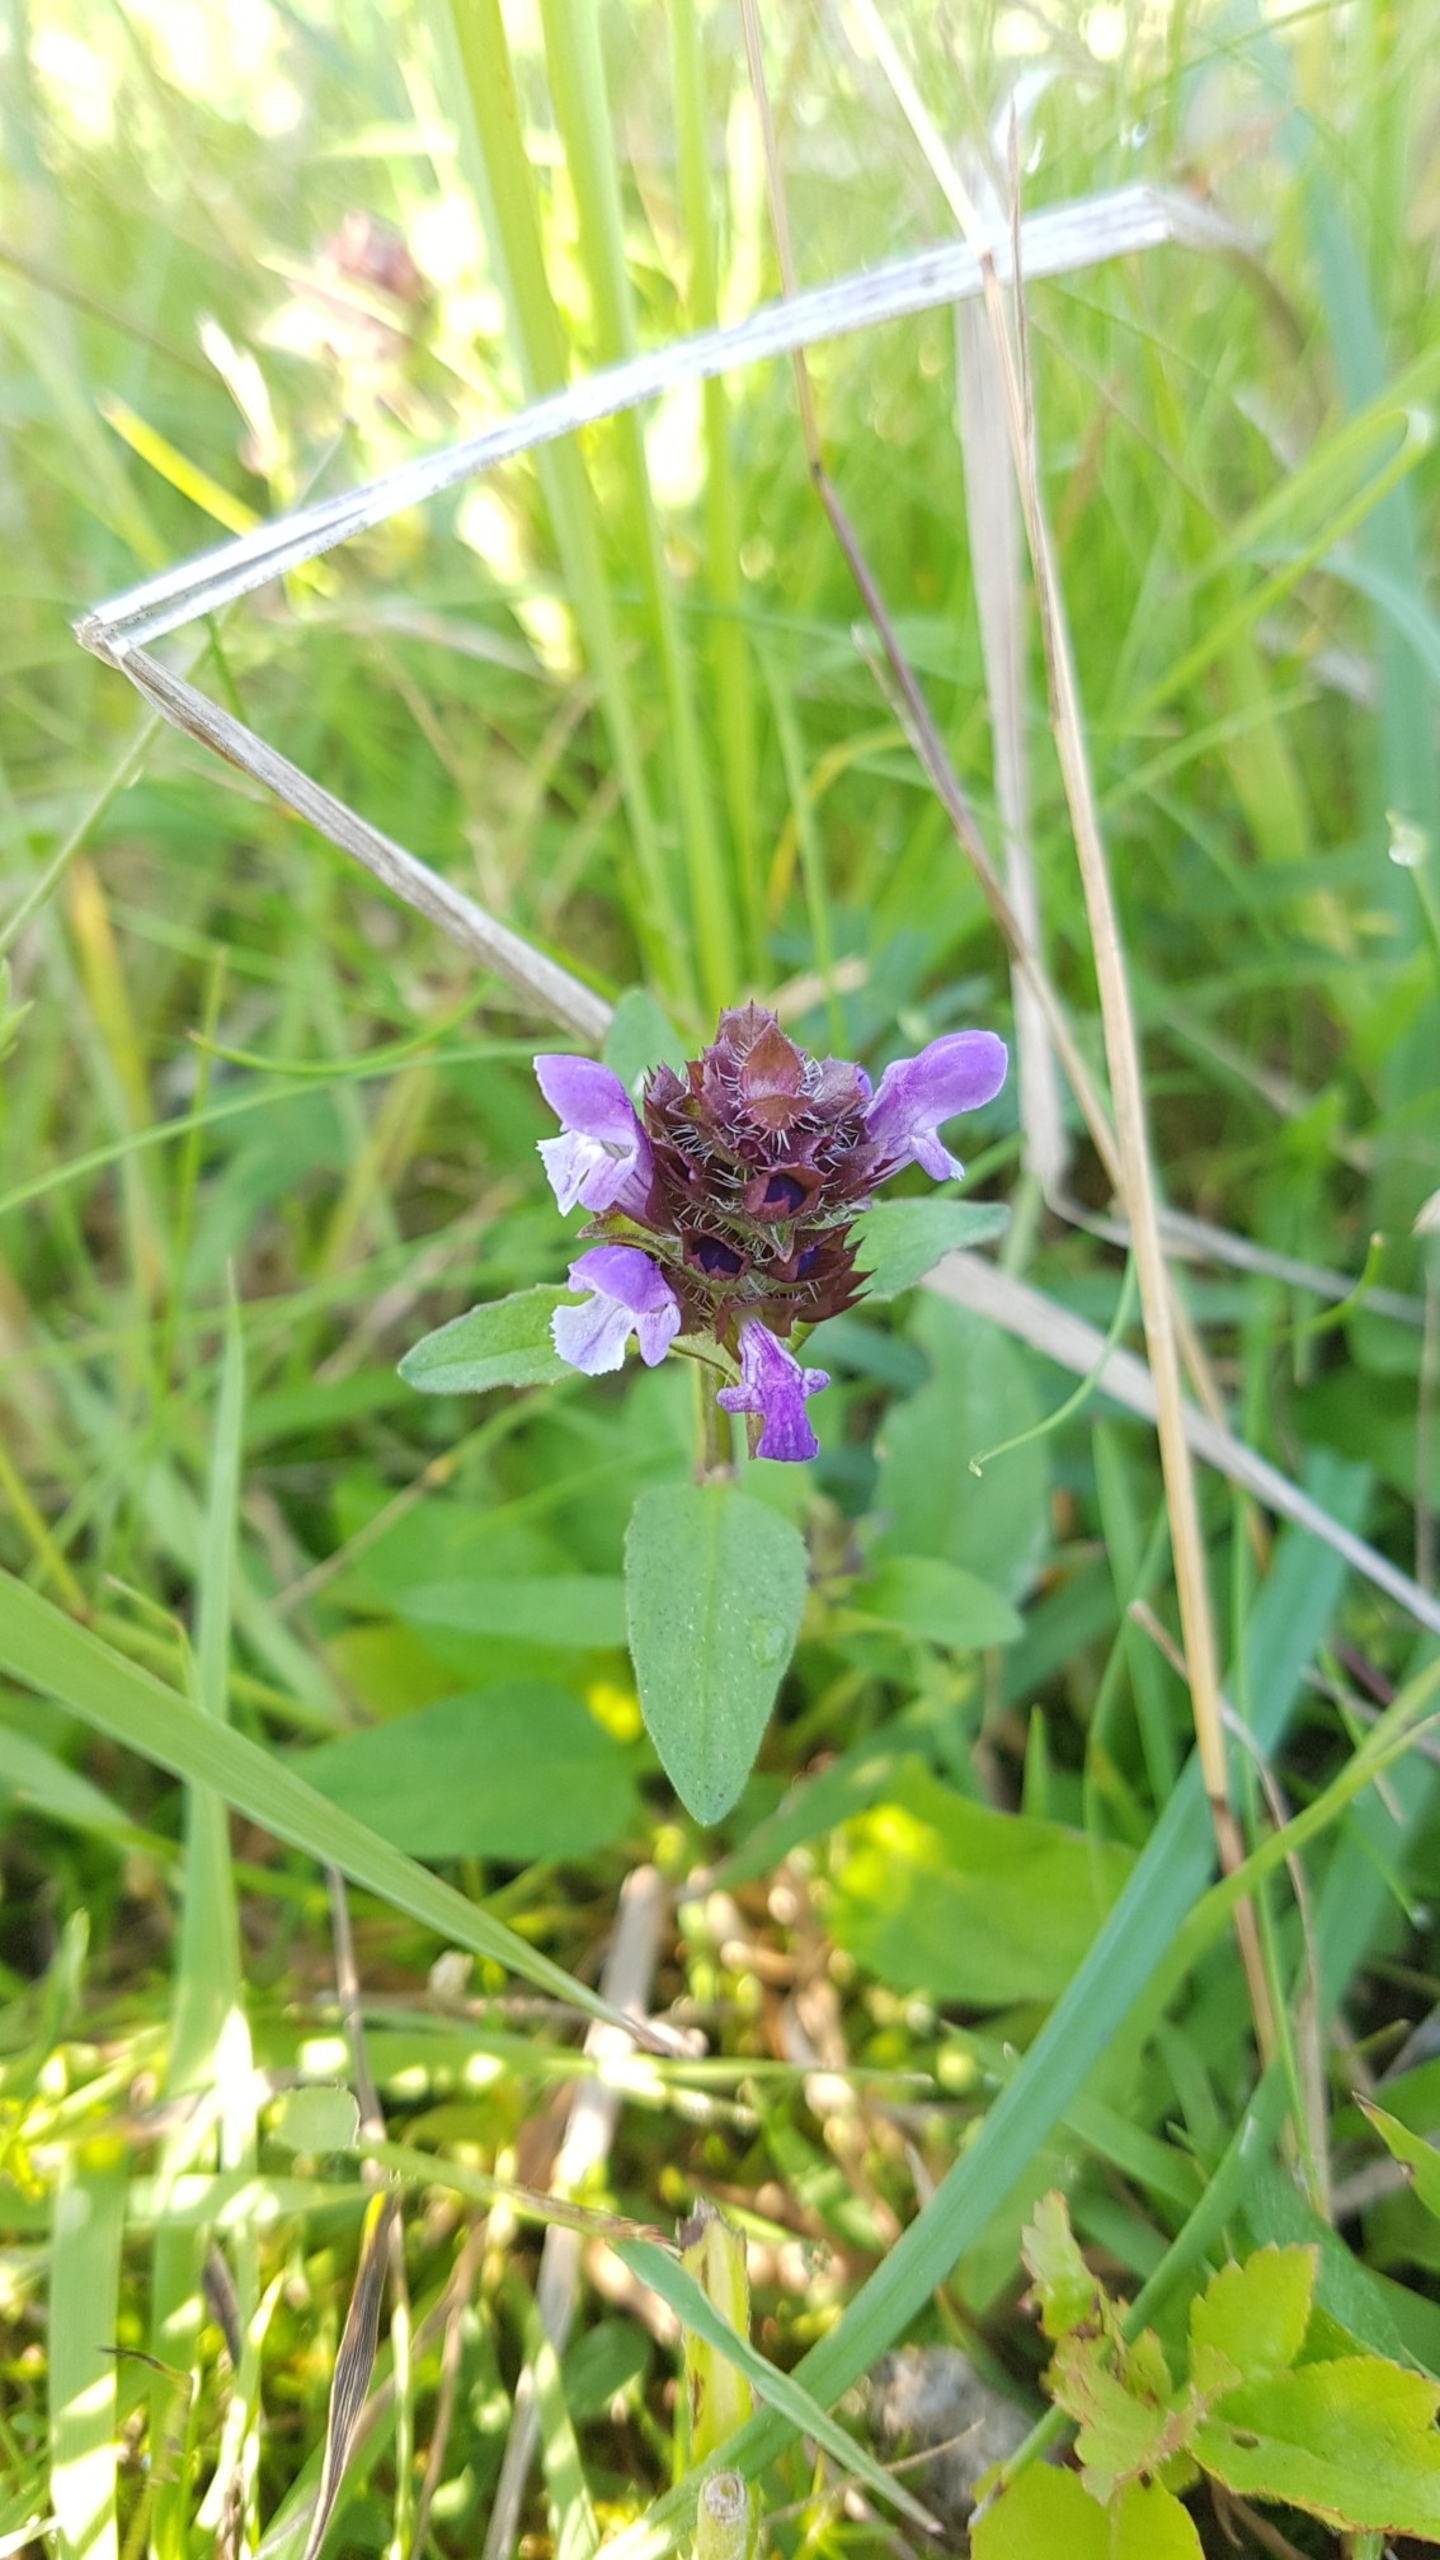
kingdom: Plantae
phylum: Tracheophyta
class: Magnoliopsida
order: Lamiales
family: Lamiaceae
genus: Prunella
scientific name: Prunella vulgaris
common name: Almindelig brunelle
